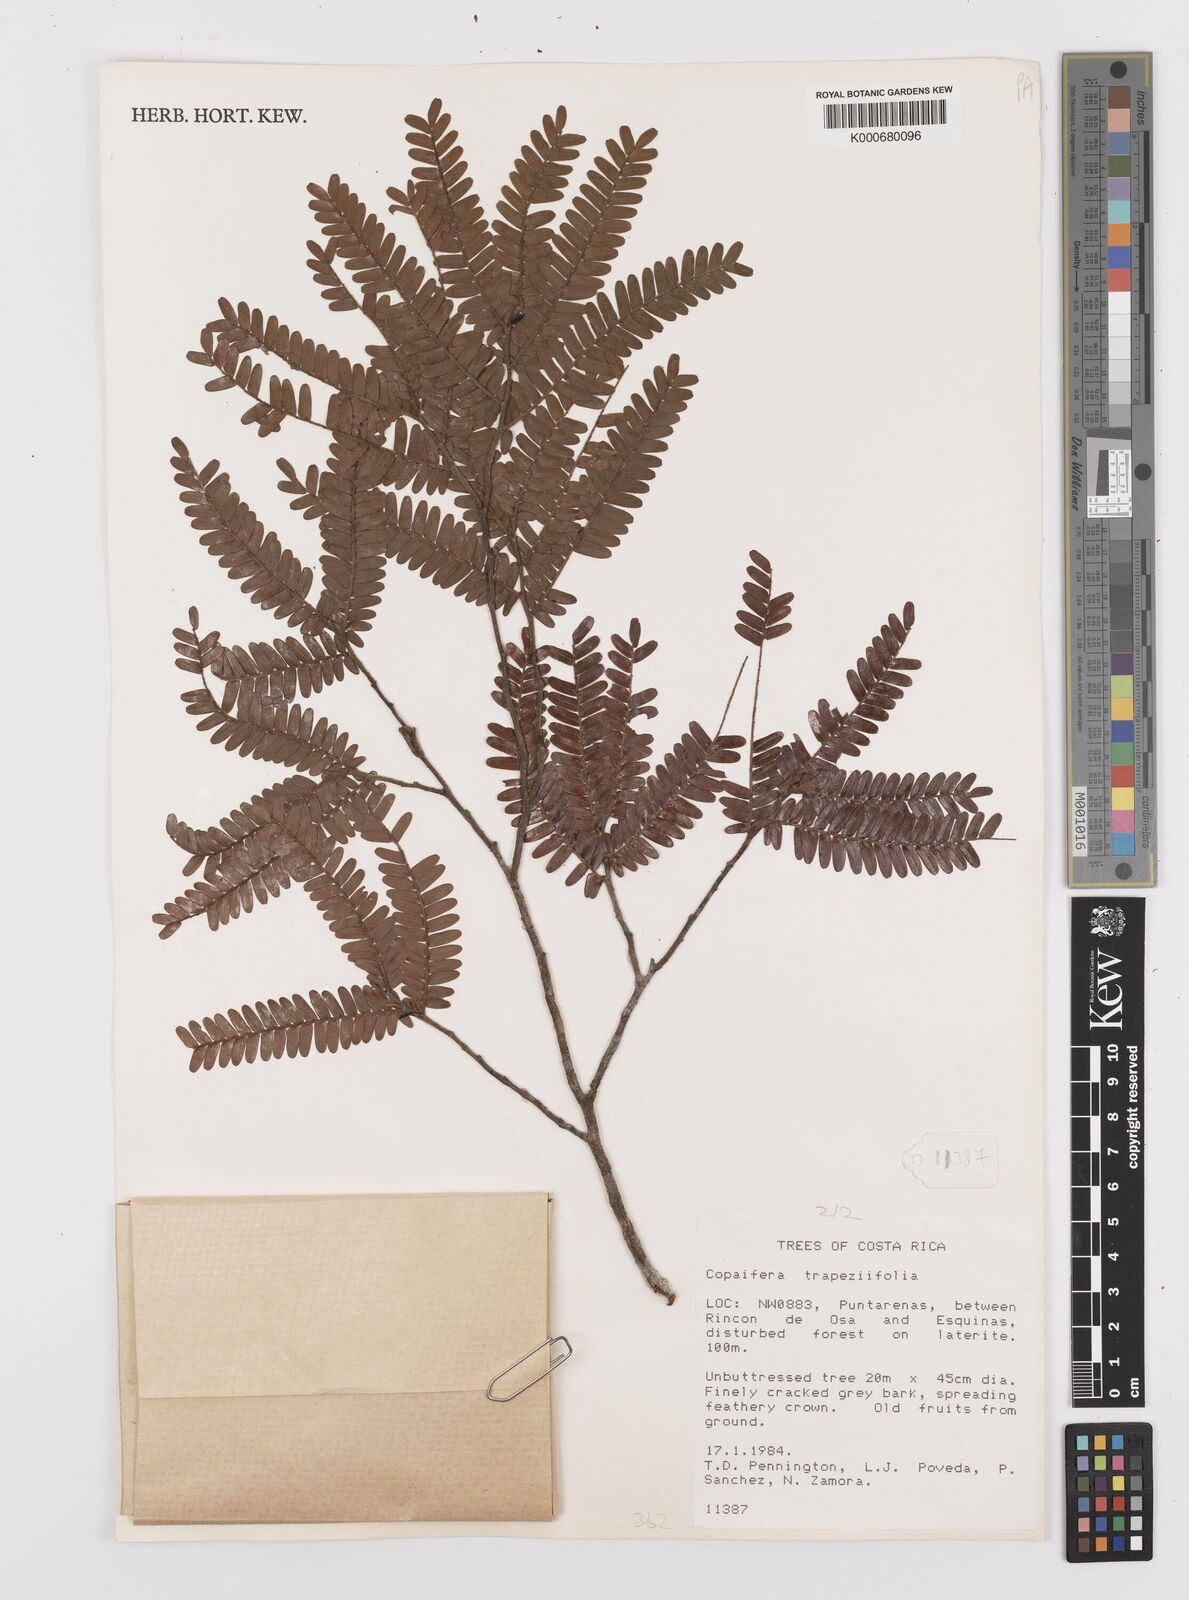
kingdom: Plantae
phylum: Tracheophyta
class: Magnoliopsida
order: Fabales
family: Fabaceae
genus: Copaifera
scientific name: Copaifera trapezifolia
